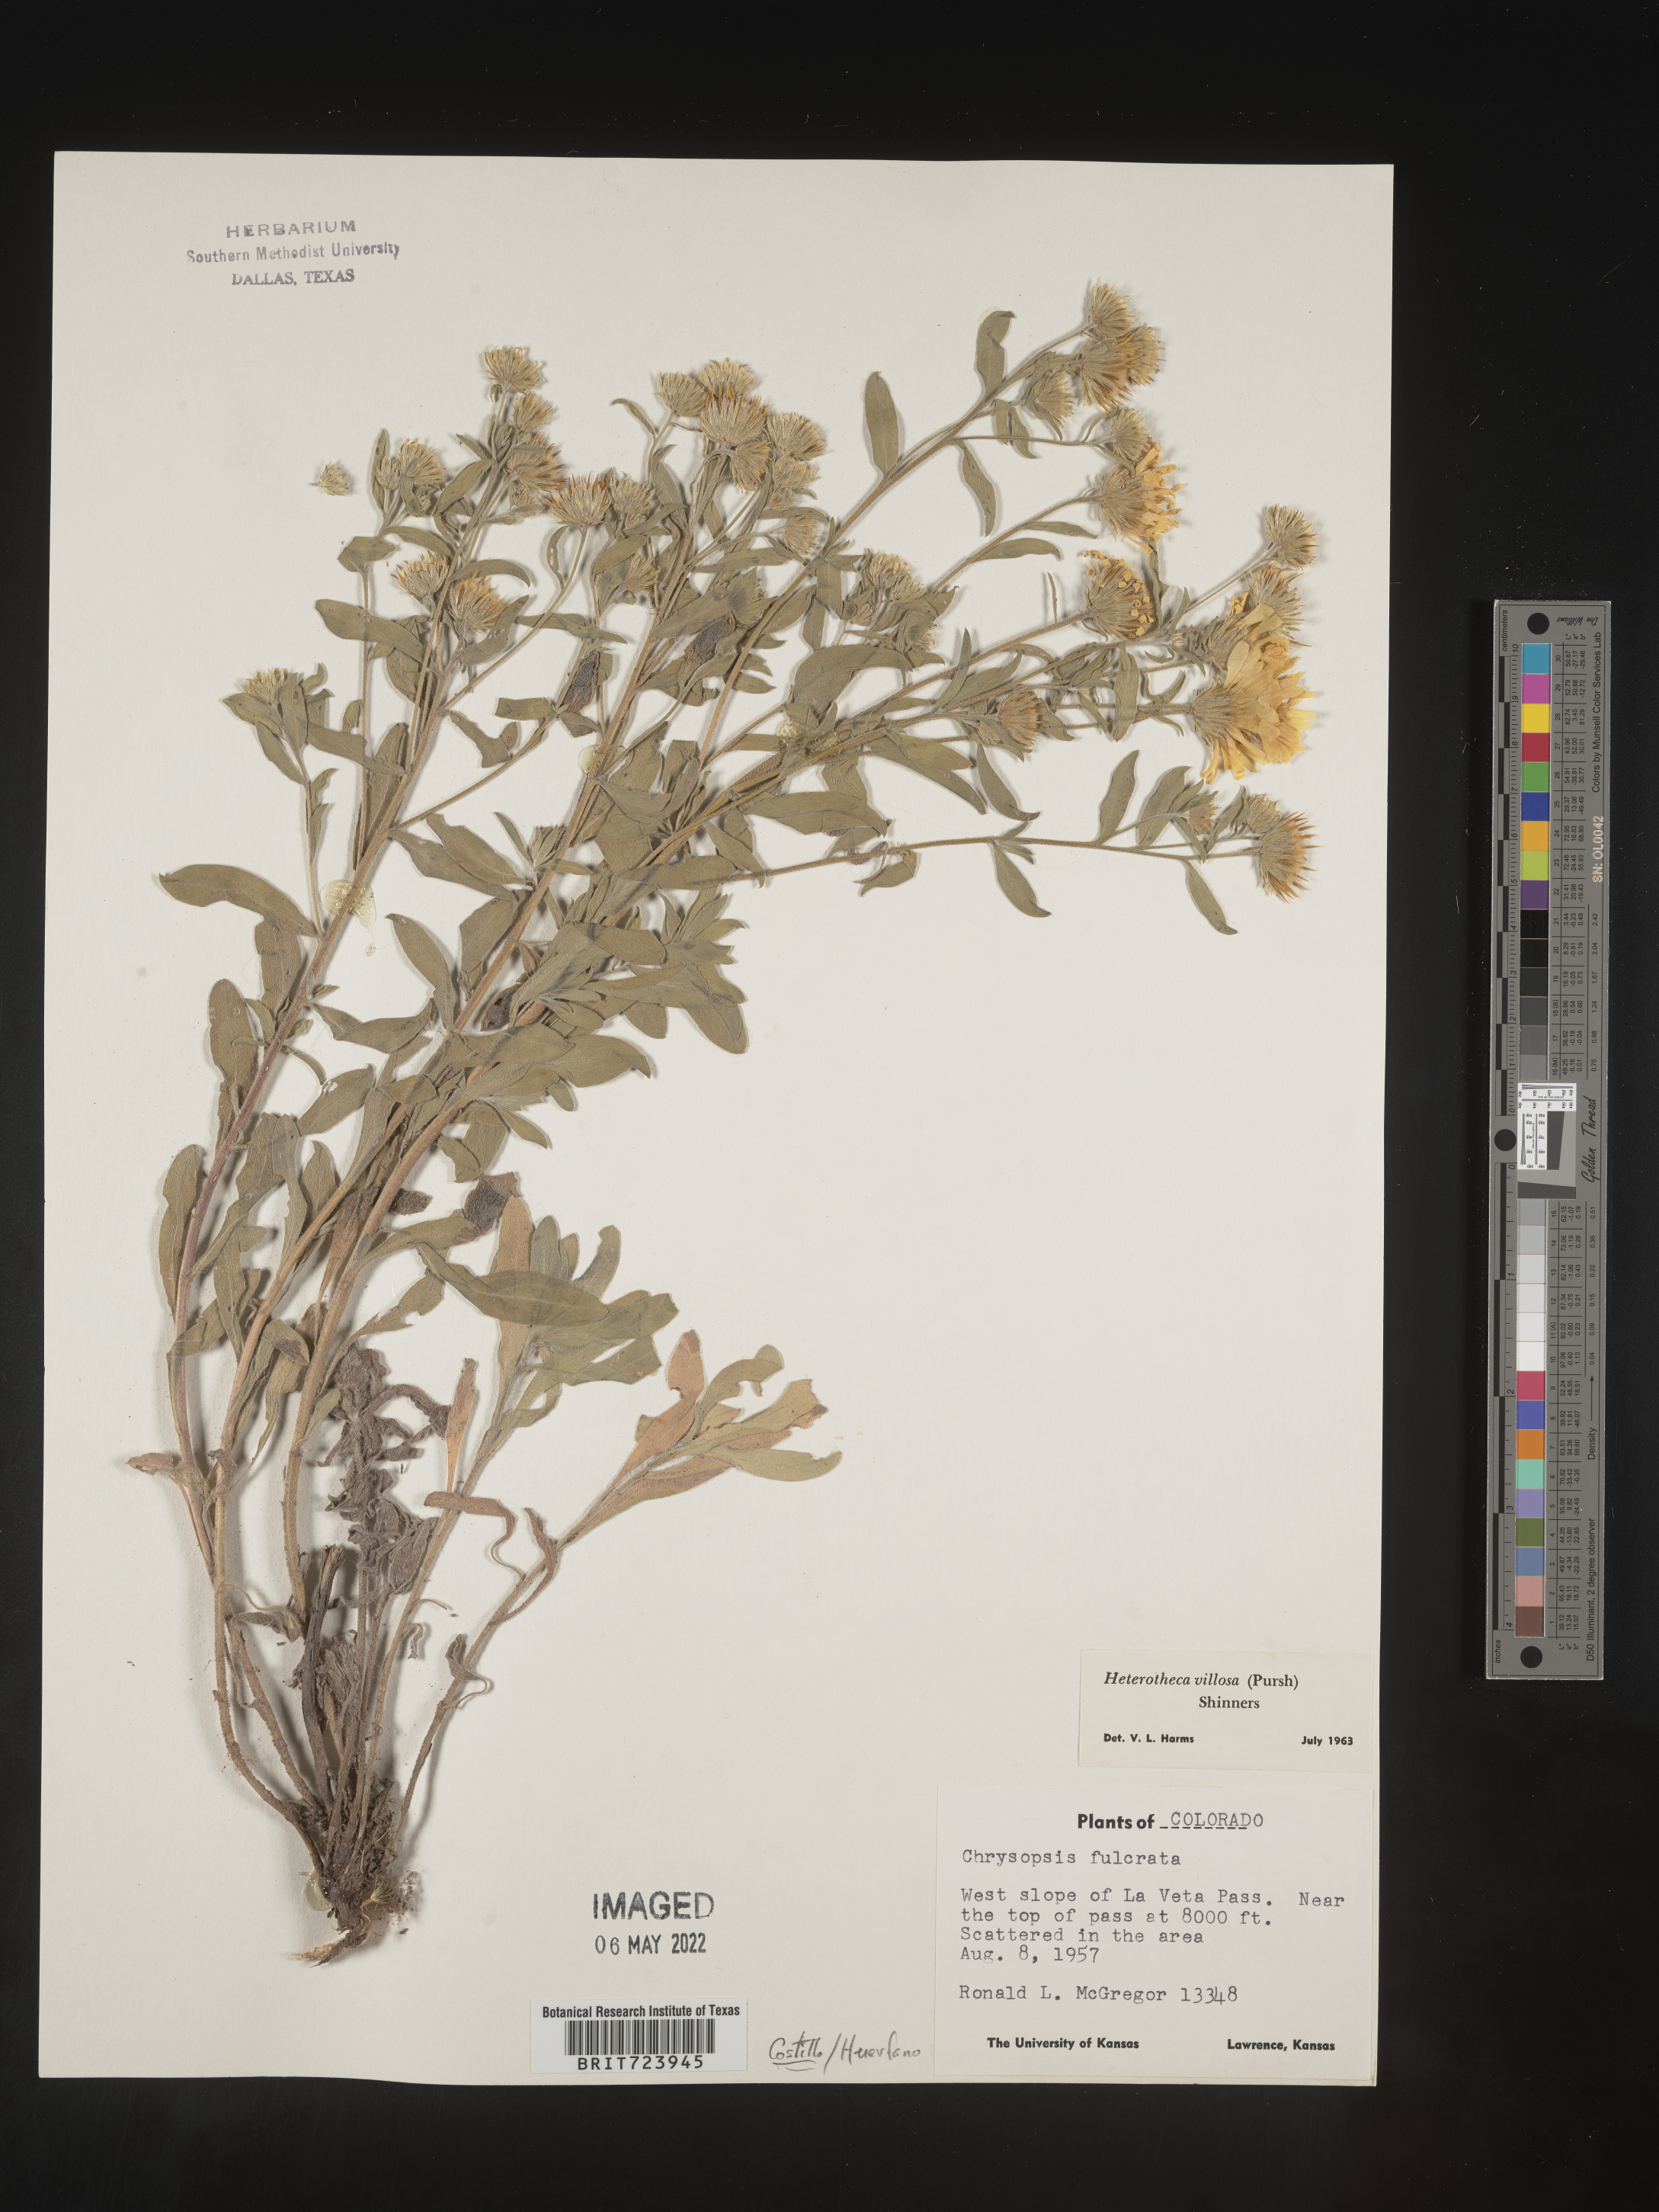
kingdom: Plantae
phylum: Tracheophyta
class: Magnoliopsida
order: Asterales
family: Asteraceae
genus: Heterotheca
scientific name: Heterotheca pedunculata
